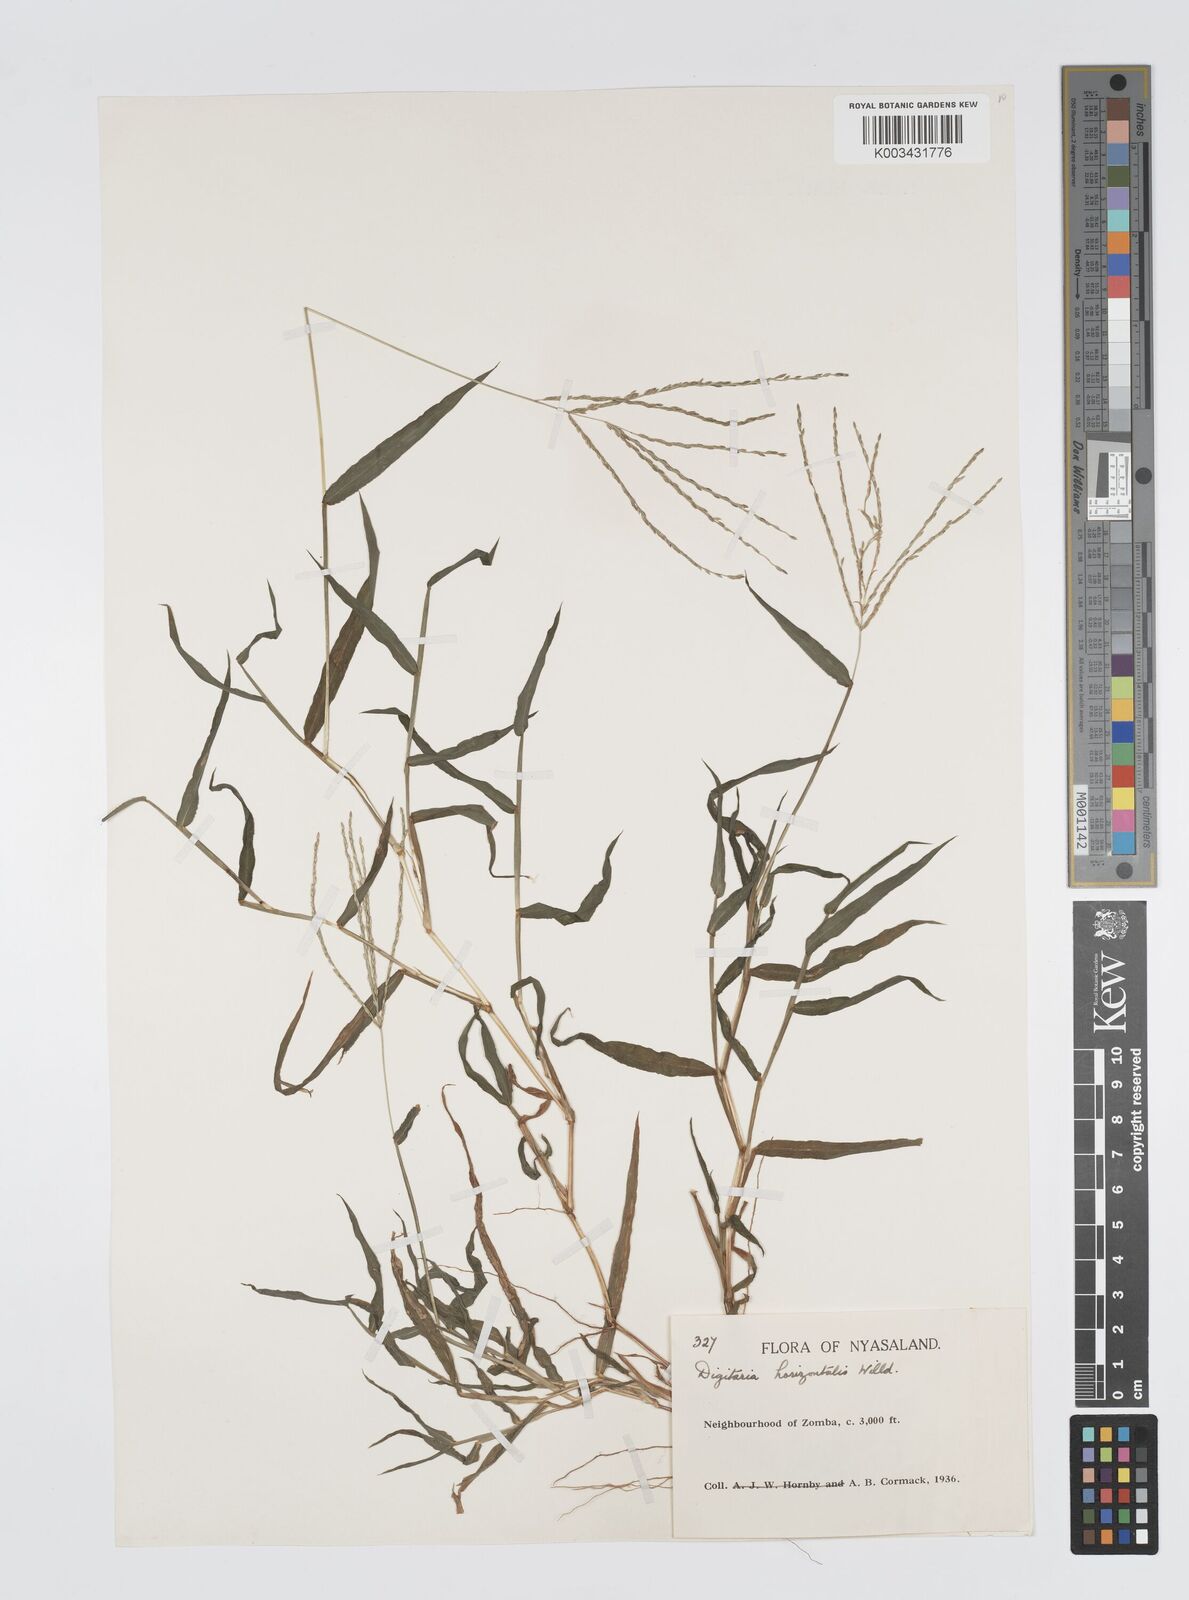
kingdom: Plantae
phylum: Tracheophyta
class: Liliopsida
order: Poales
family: Poaceae
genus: Digitaria
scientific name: Digitaria nuda
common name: Naked crabgrass
